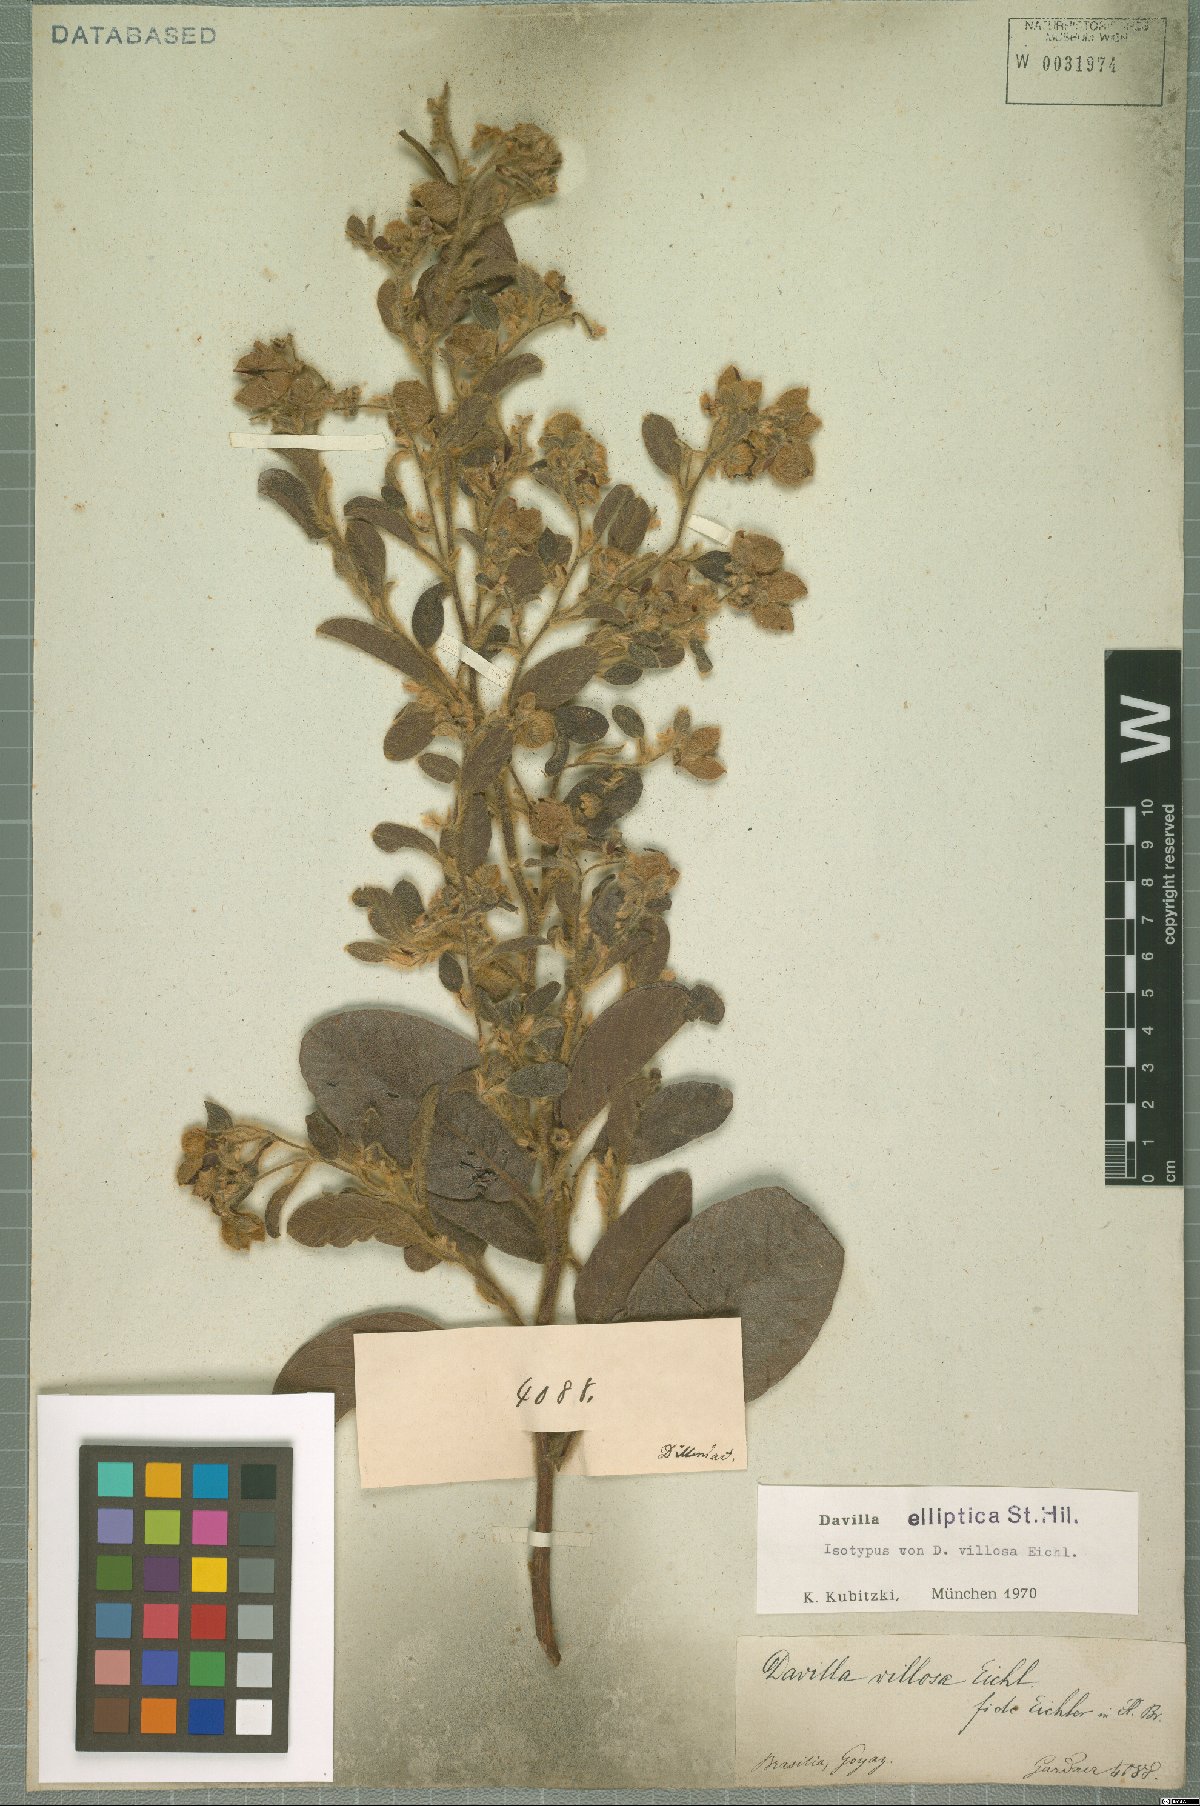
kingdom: Plantae
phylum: Tracheophyta
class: Magnoliopsida
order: Dilleniales
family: Dilleniaceae
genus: Davilla
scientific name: Davilla elliptica
